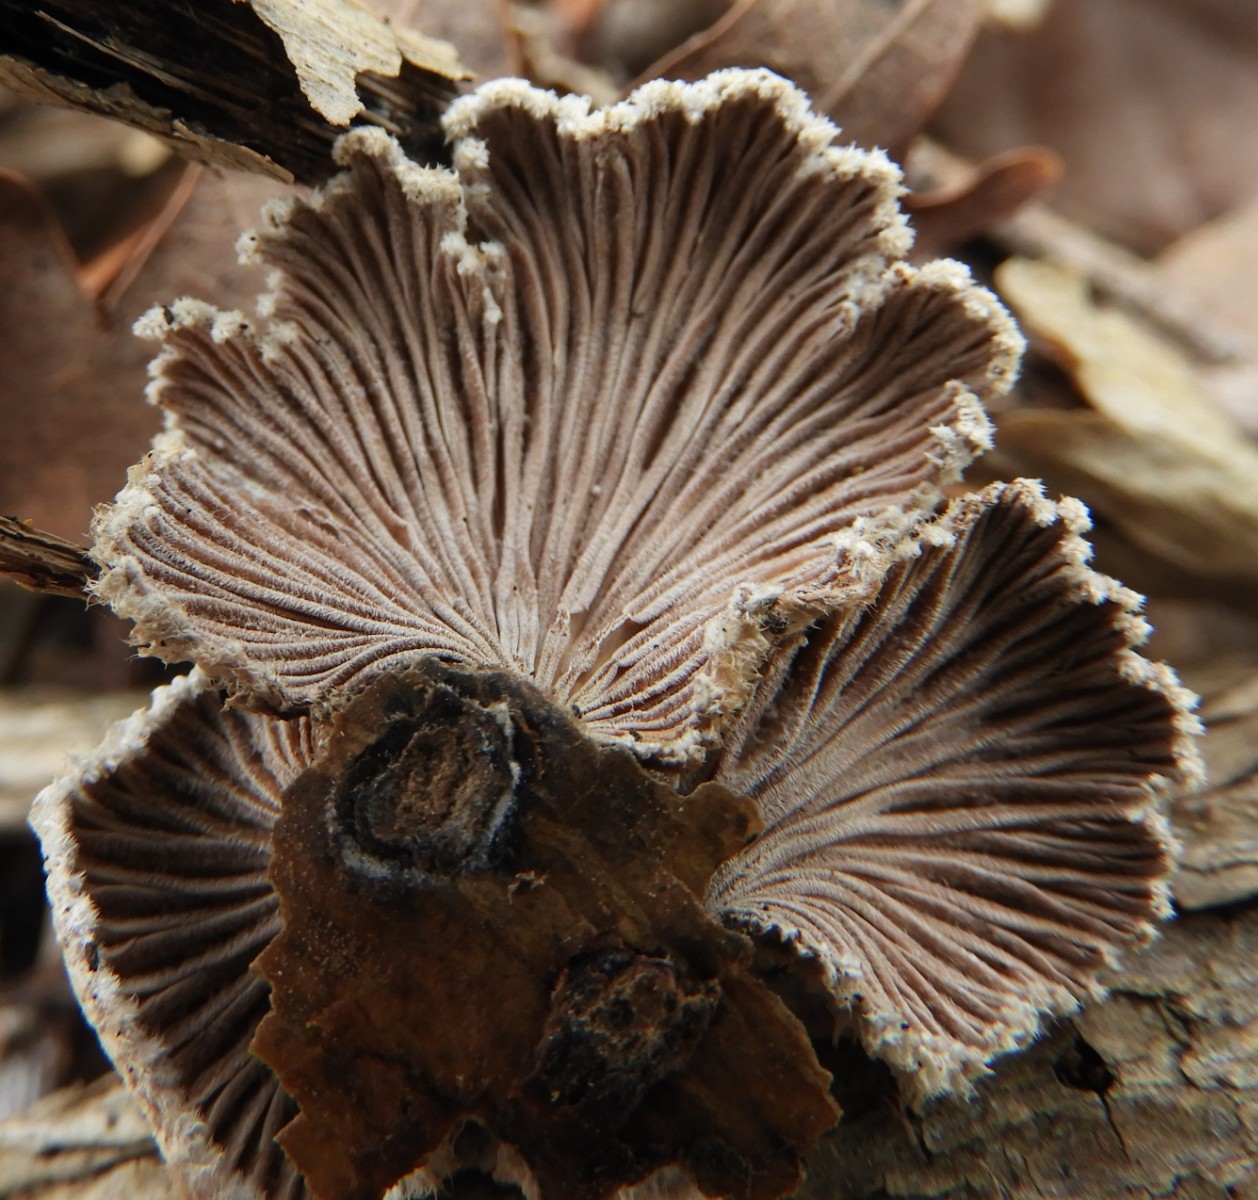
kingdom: Fungi
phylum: Basidiomycota
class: Agaricomycetes
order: Agaricales
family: Schizophyllaceae
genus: Schizophyllum
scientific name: Schizophyllum commune
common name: kløvblad
